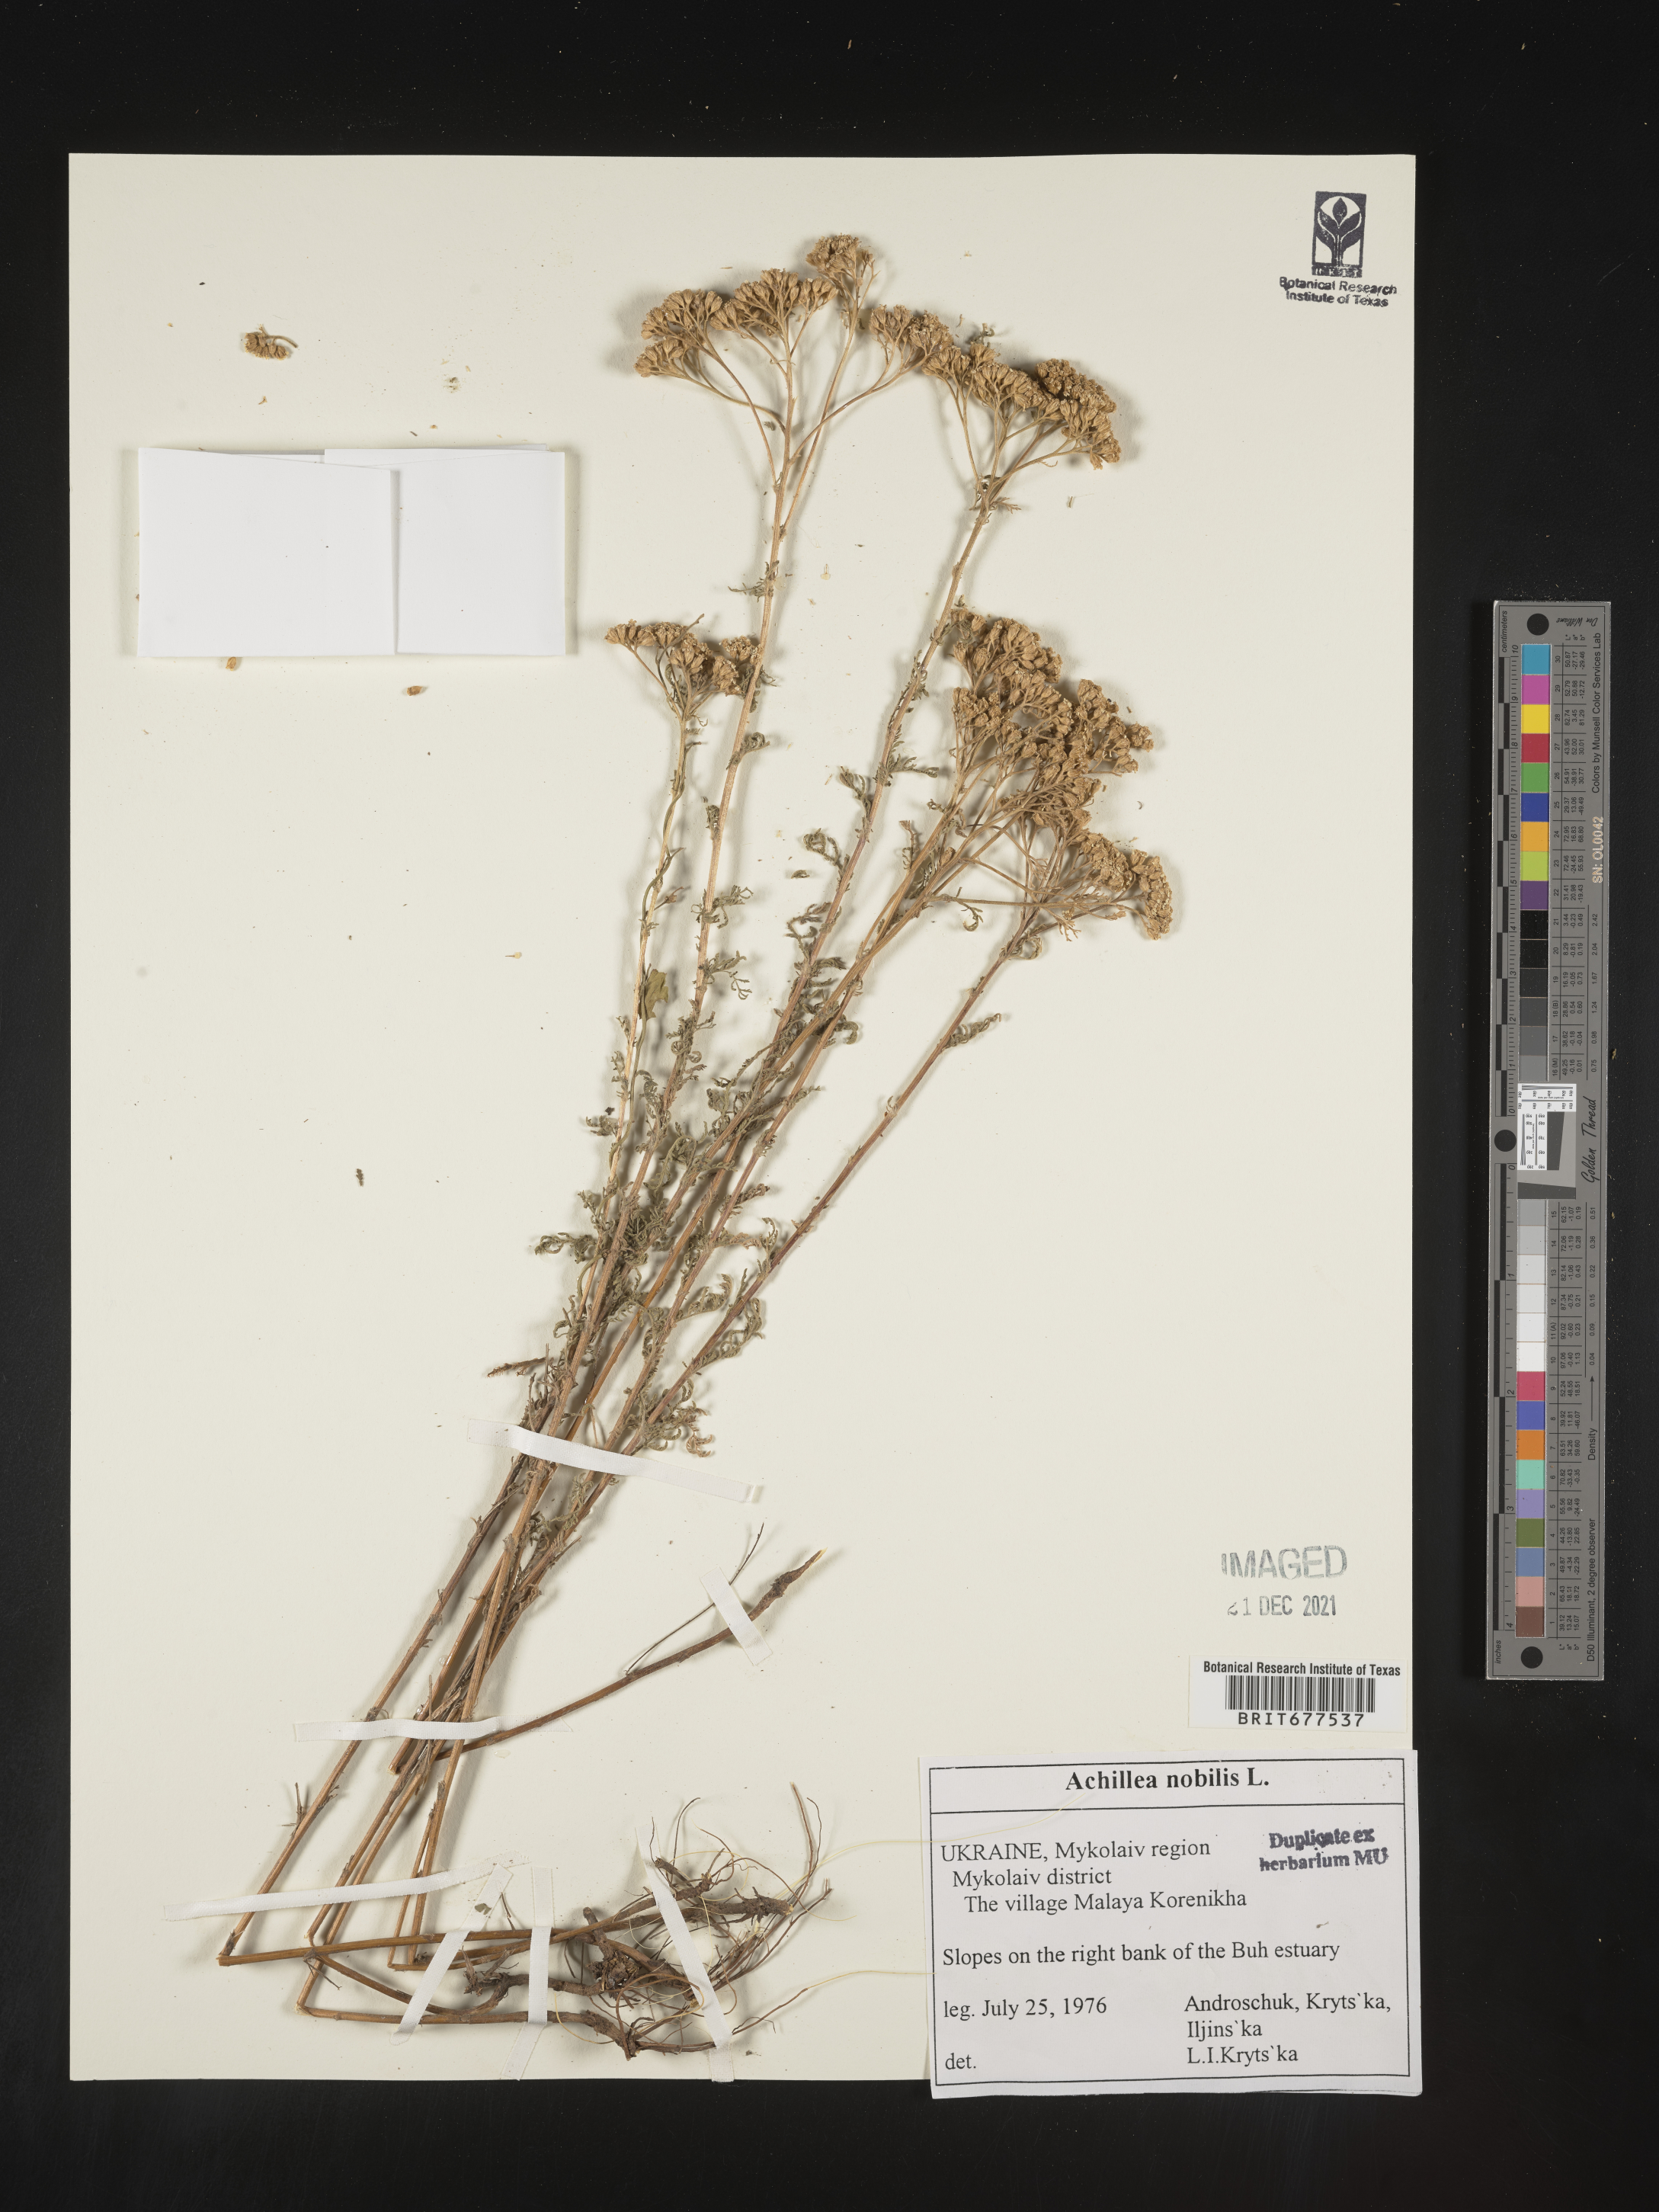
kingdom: Plantae
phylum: Tracheophyta
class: Magnoliopsida
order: Asterales
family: Asteraceae
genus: Achillea
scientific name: Achillea
